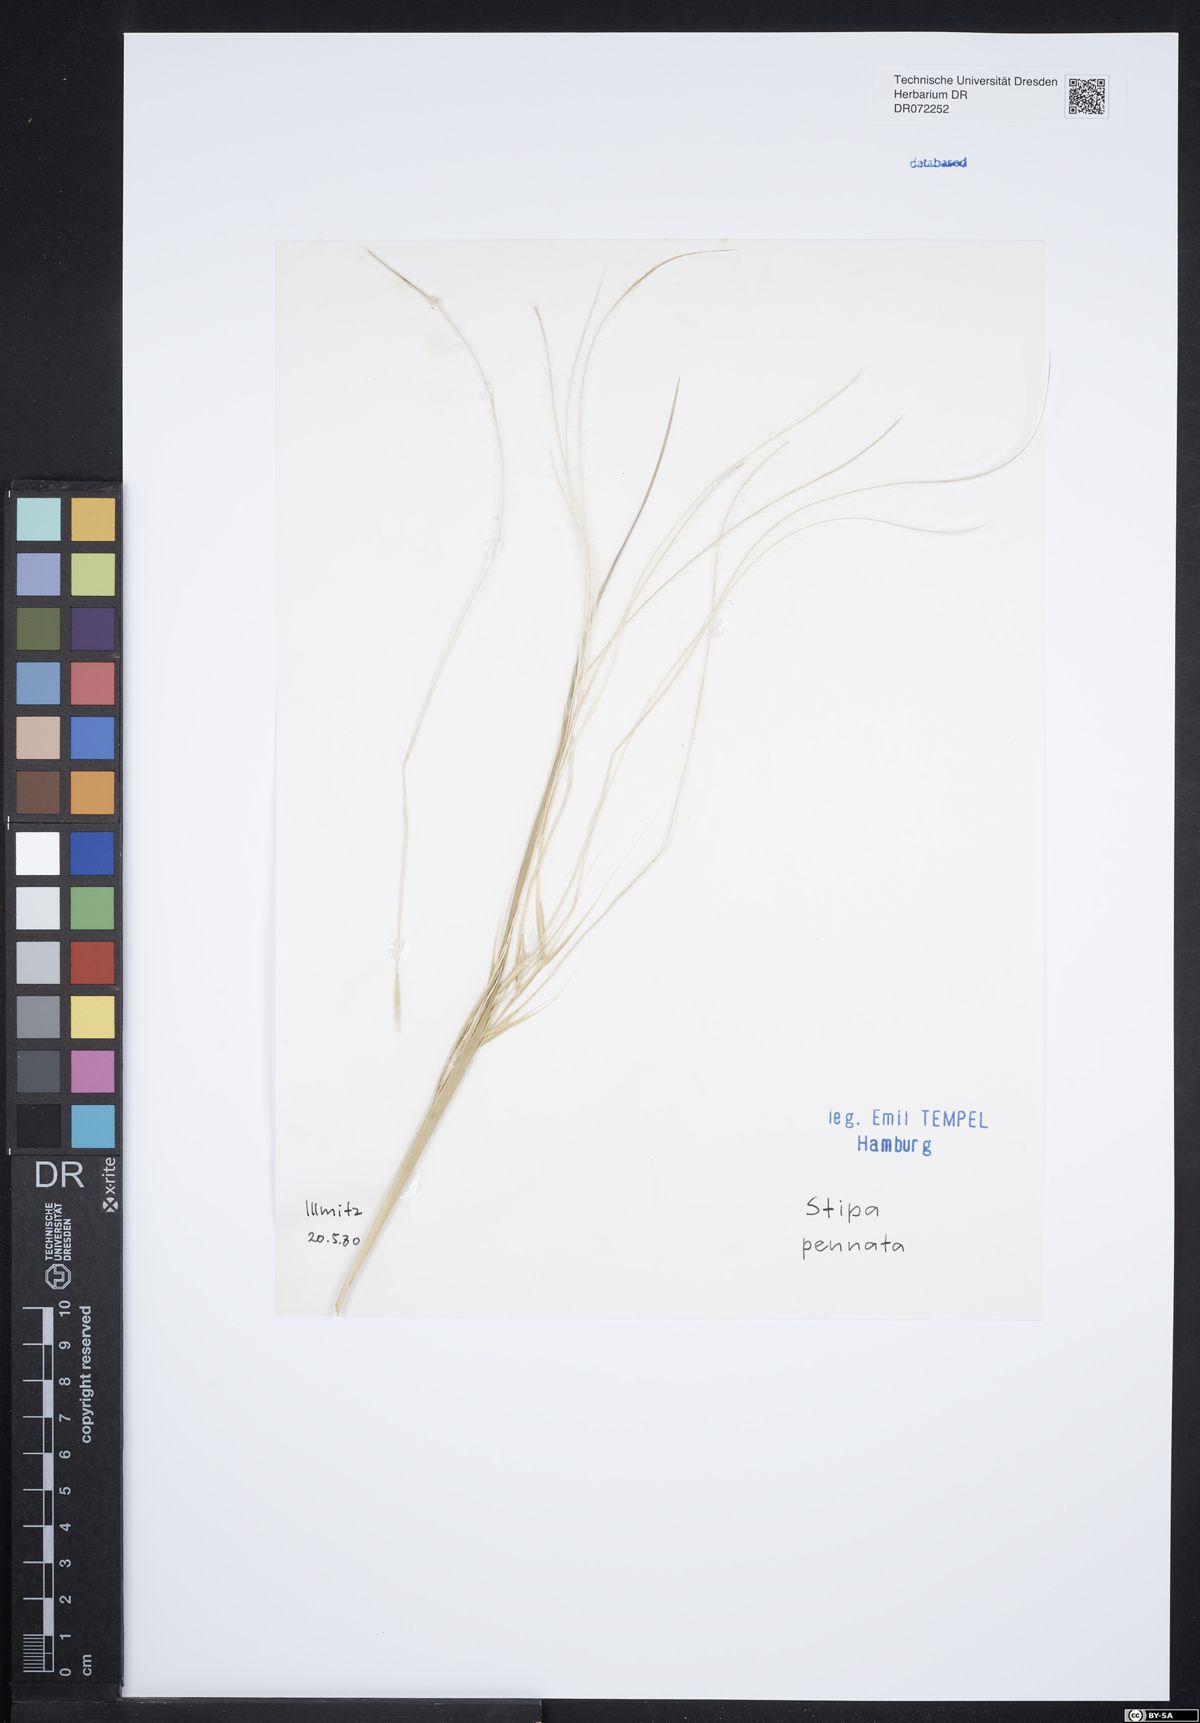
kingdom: Plantae
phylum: Tracheophyta
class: Liliopsida
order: Poales
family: Poaceae
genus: Stipa
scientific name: Stipa pennata
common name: European feather grass
